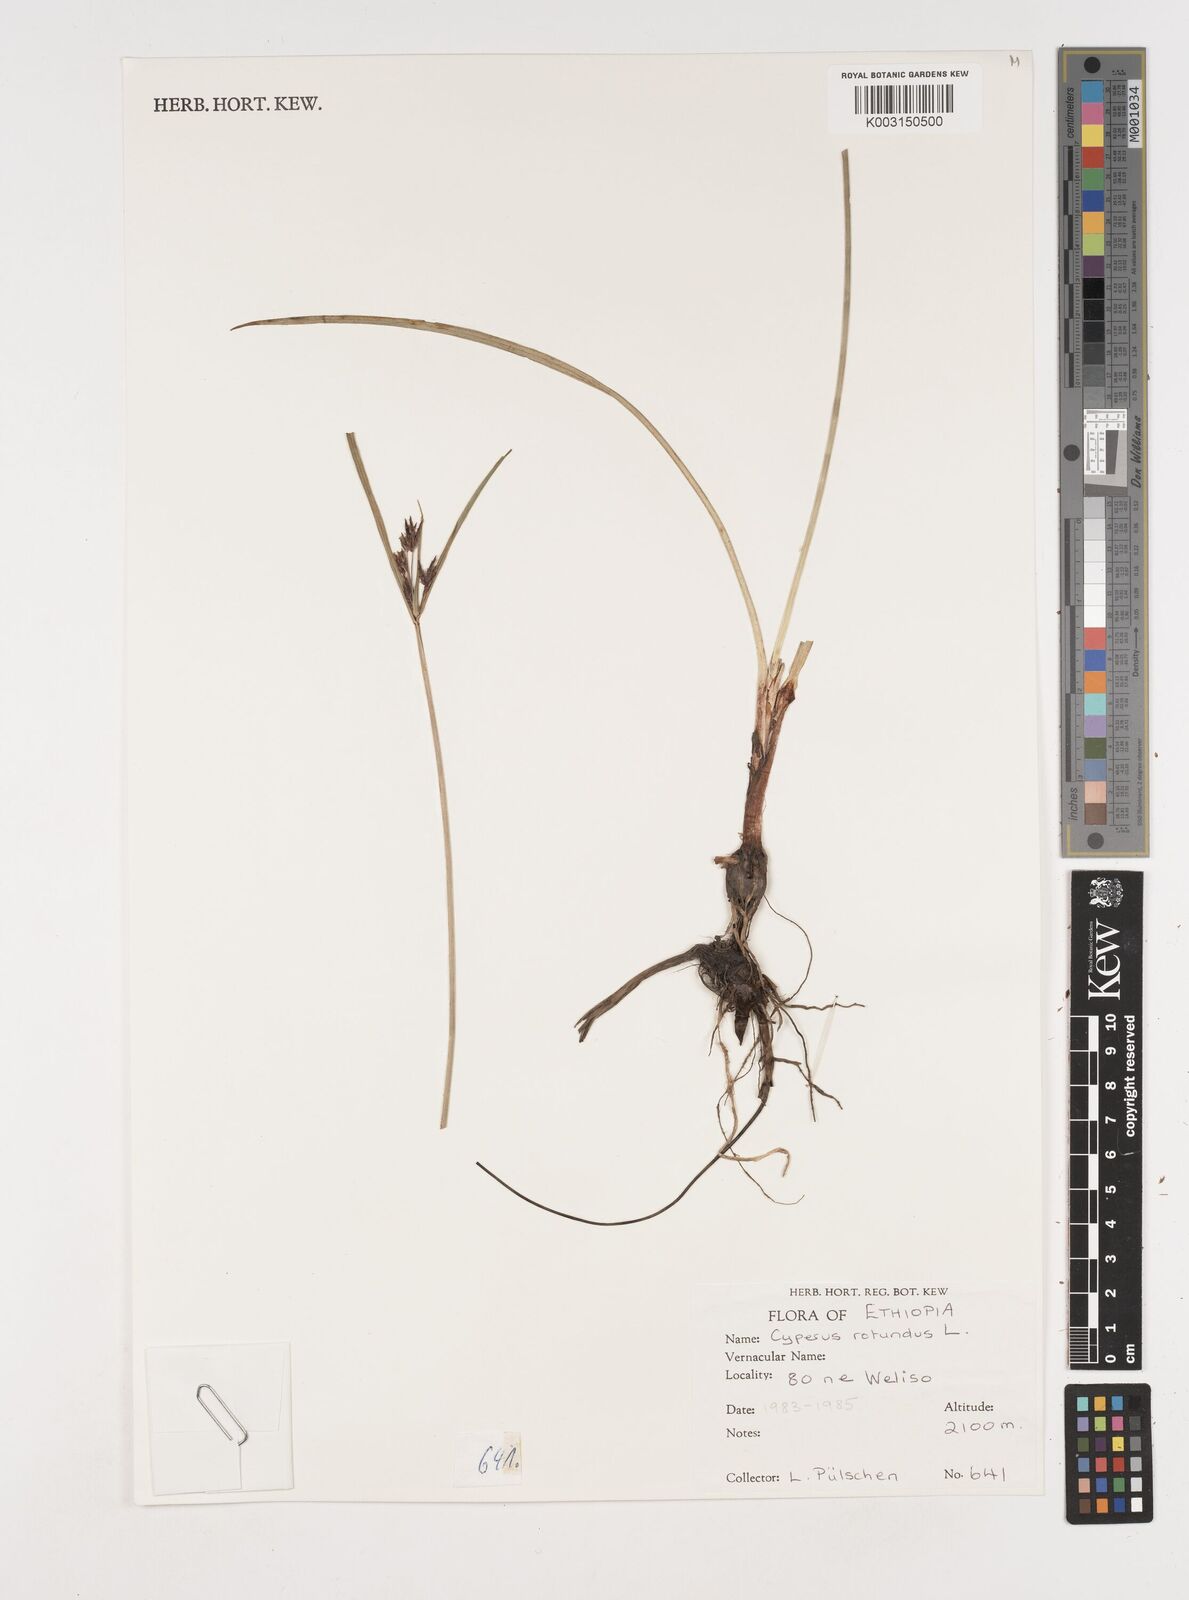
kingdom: Plantae
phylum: Tracheophyta
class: Liliopsida
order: Poales
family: Cyperaceae
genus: Cyperus
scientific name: Cyperus rotundus
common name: Nutgrass
